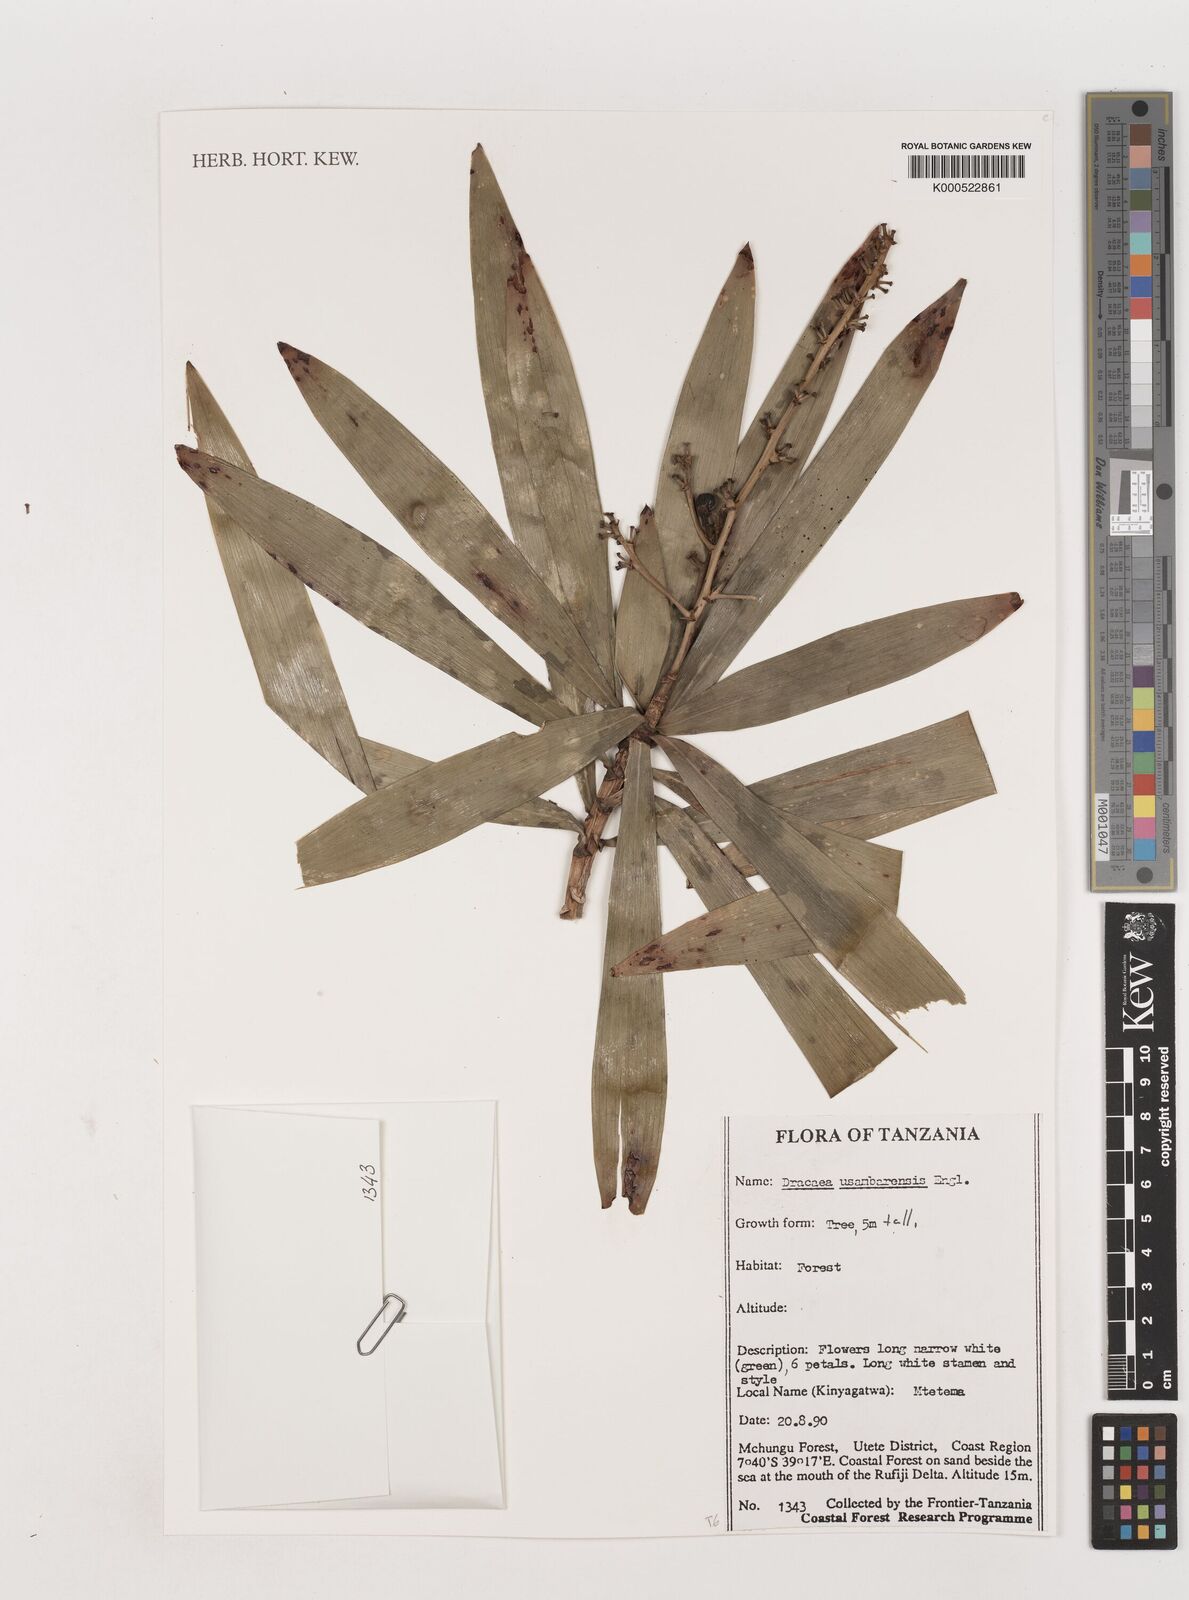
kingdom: Plantae
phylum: Tracheophyta
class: Liliopsida
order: Asparagales
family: Asparagaceae
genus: Dracaena
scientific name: Dracaena usambarensis
